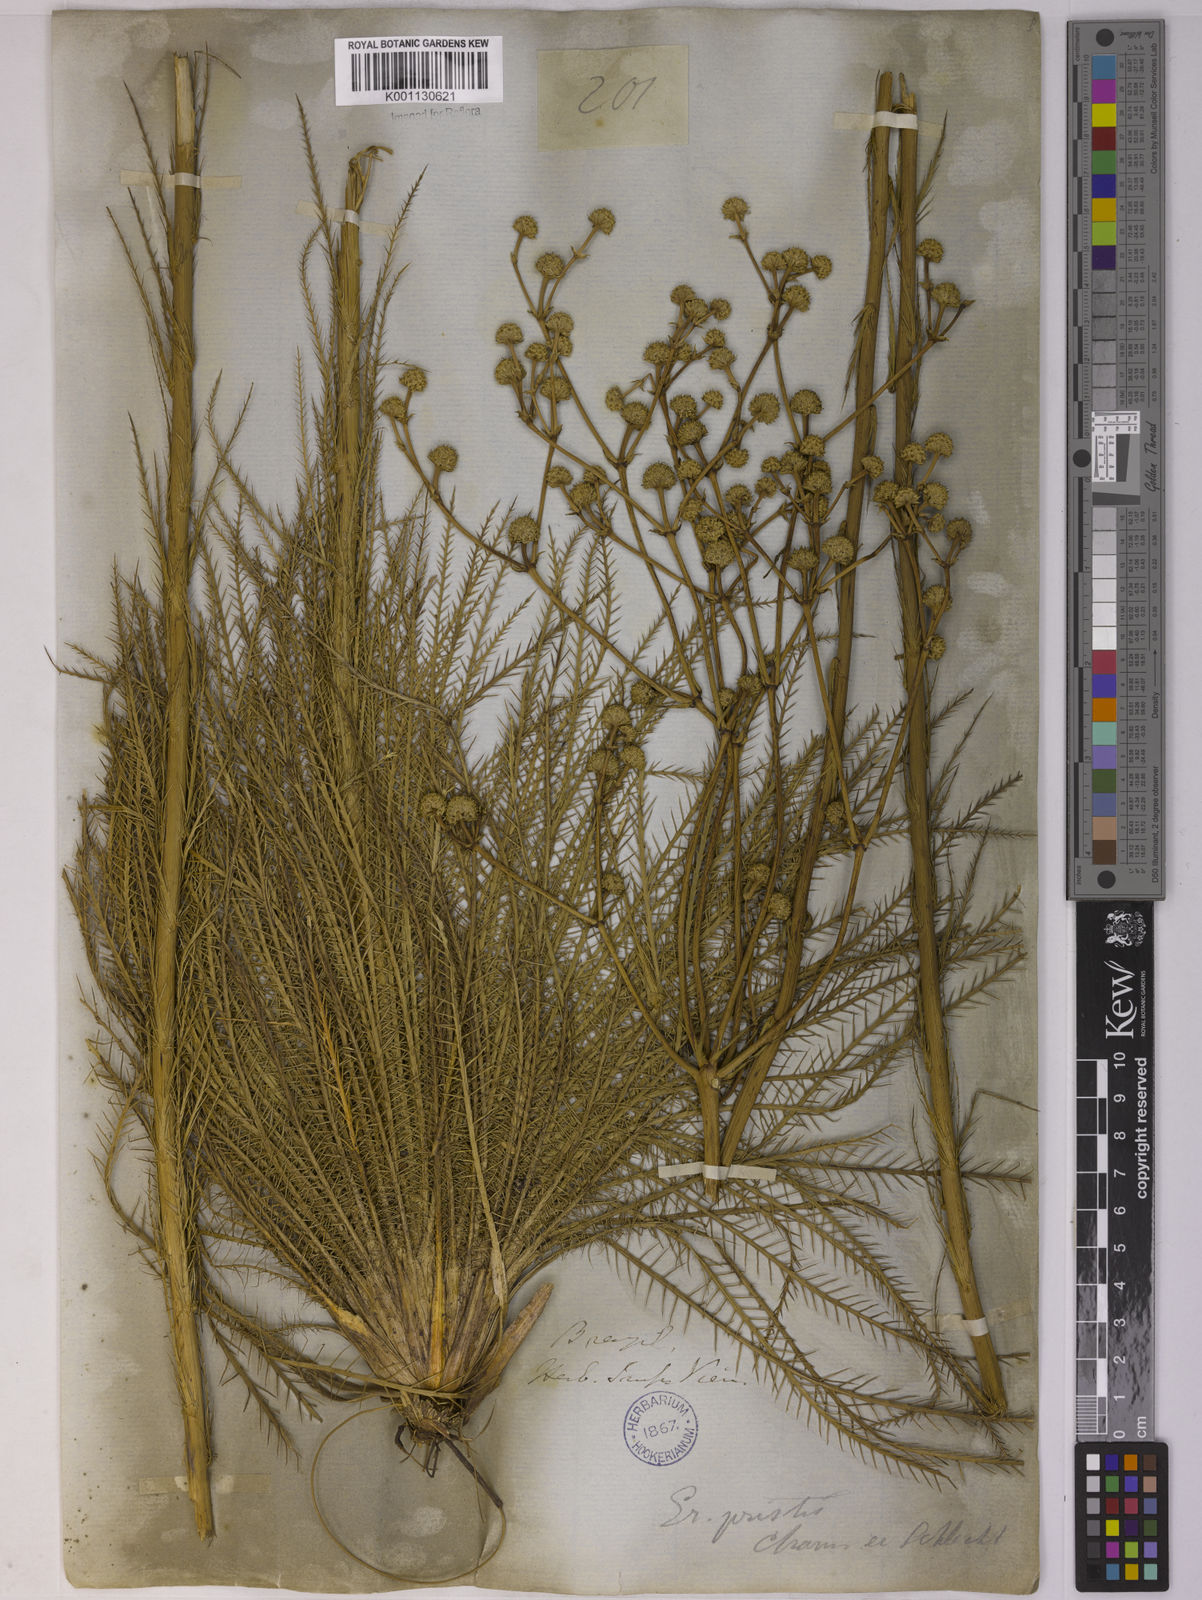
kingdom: Plantae
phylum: Tracheophyta
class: Magnoliopsida
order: Apiales
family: Apiaceae
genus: Eryngium
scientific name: Eryngium pristis
